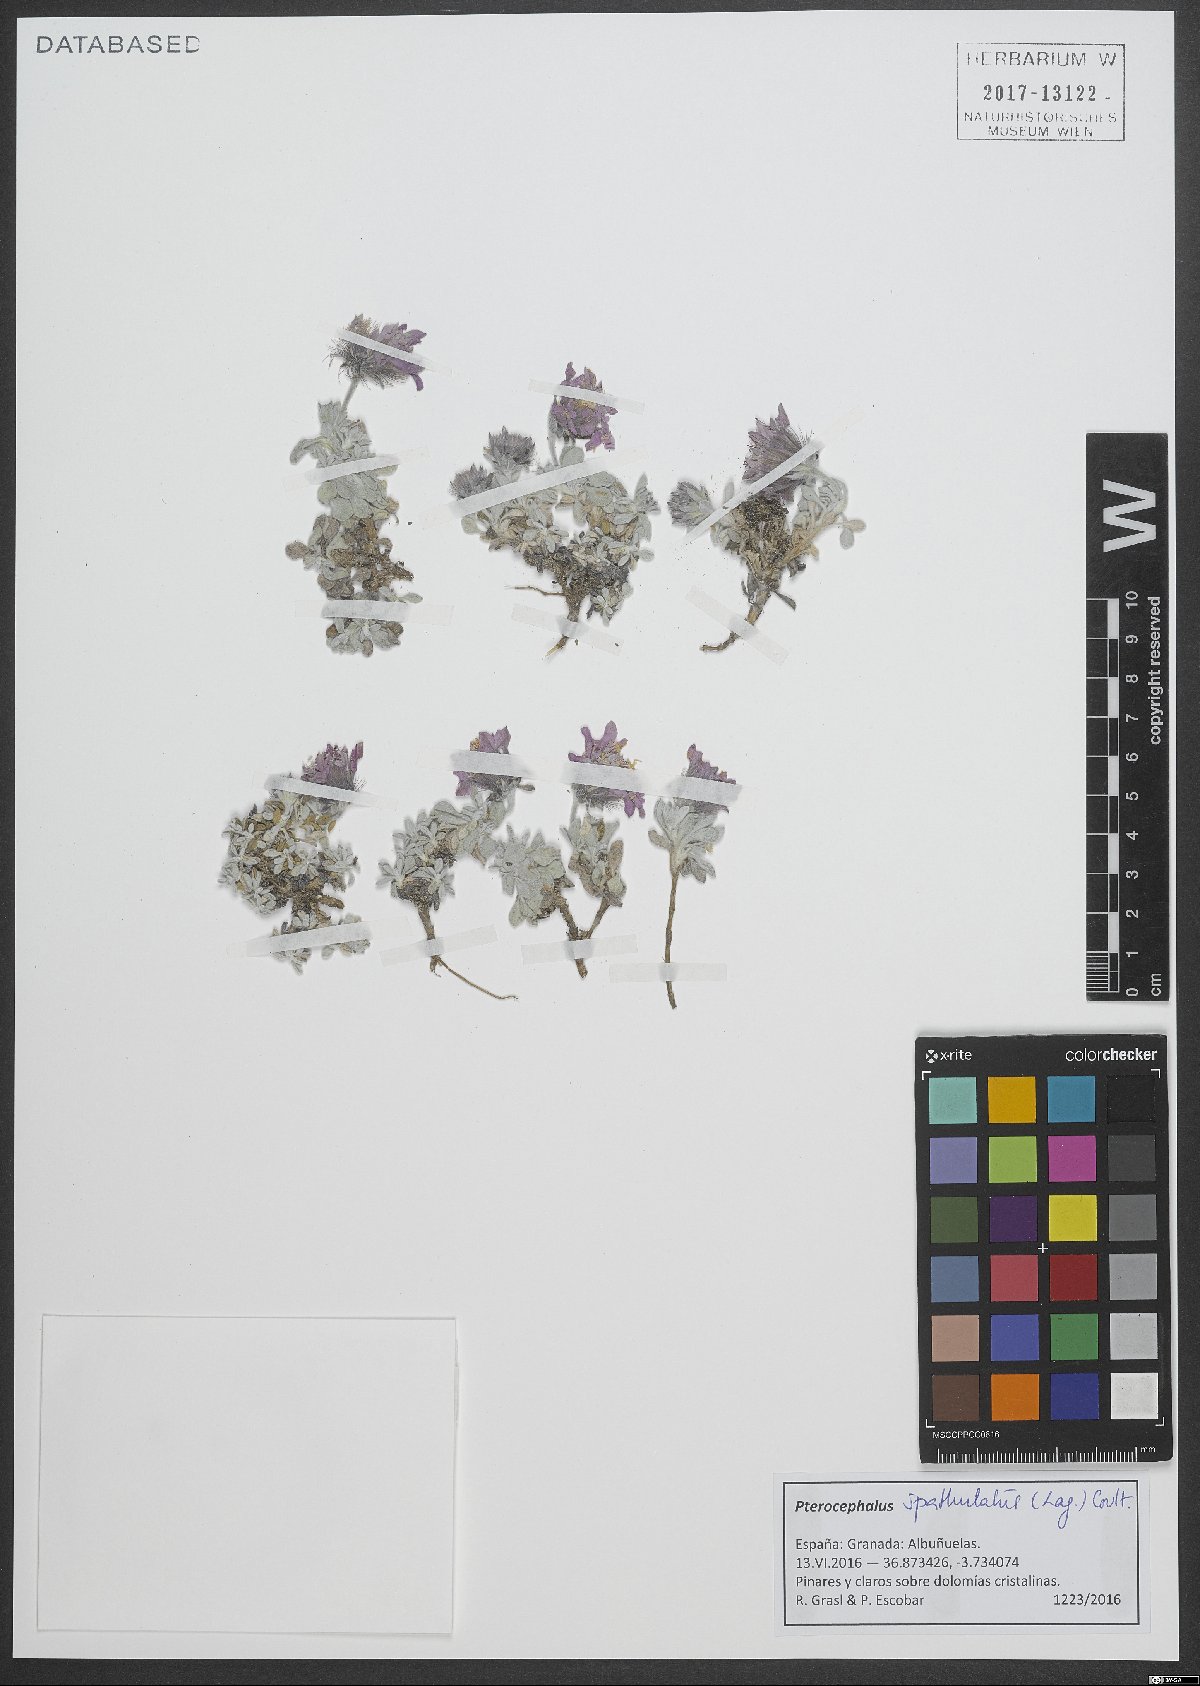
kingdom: Plantae
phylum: Tracheophyta
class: Magnoliopsida
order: Dipsacales
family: Caprifoliaceae
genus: Pterocephalus
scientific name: Pterocephalus spathulatus
